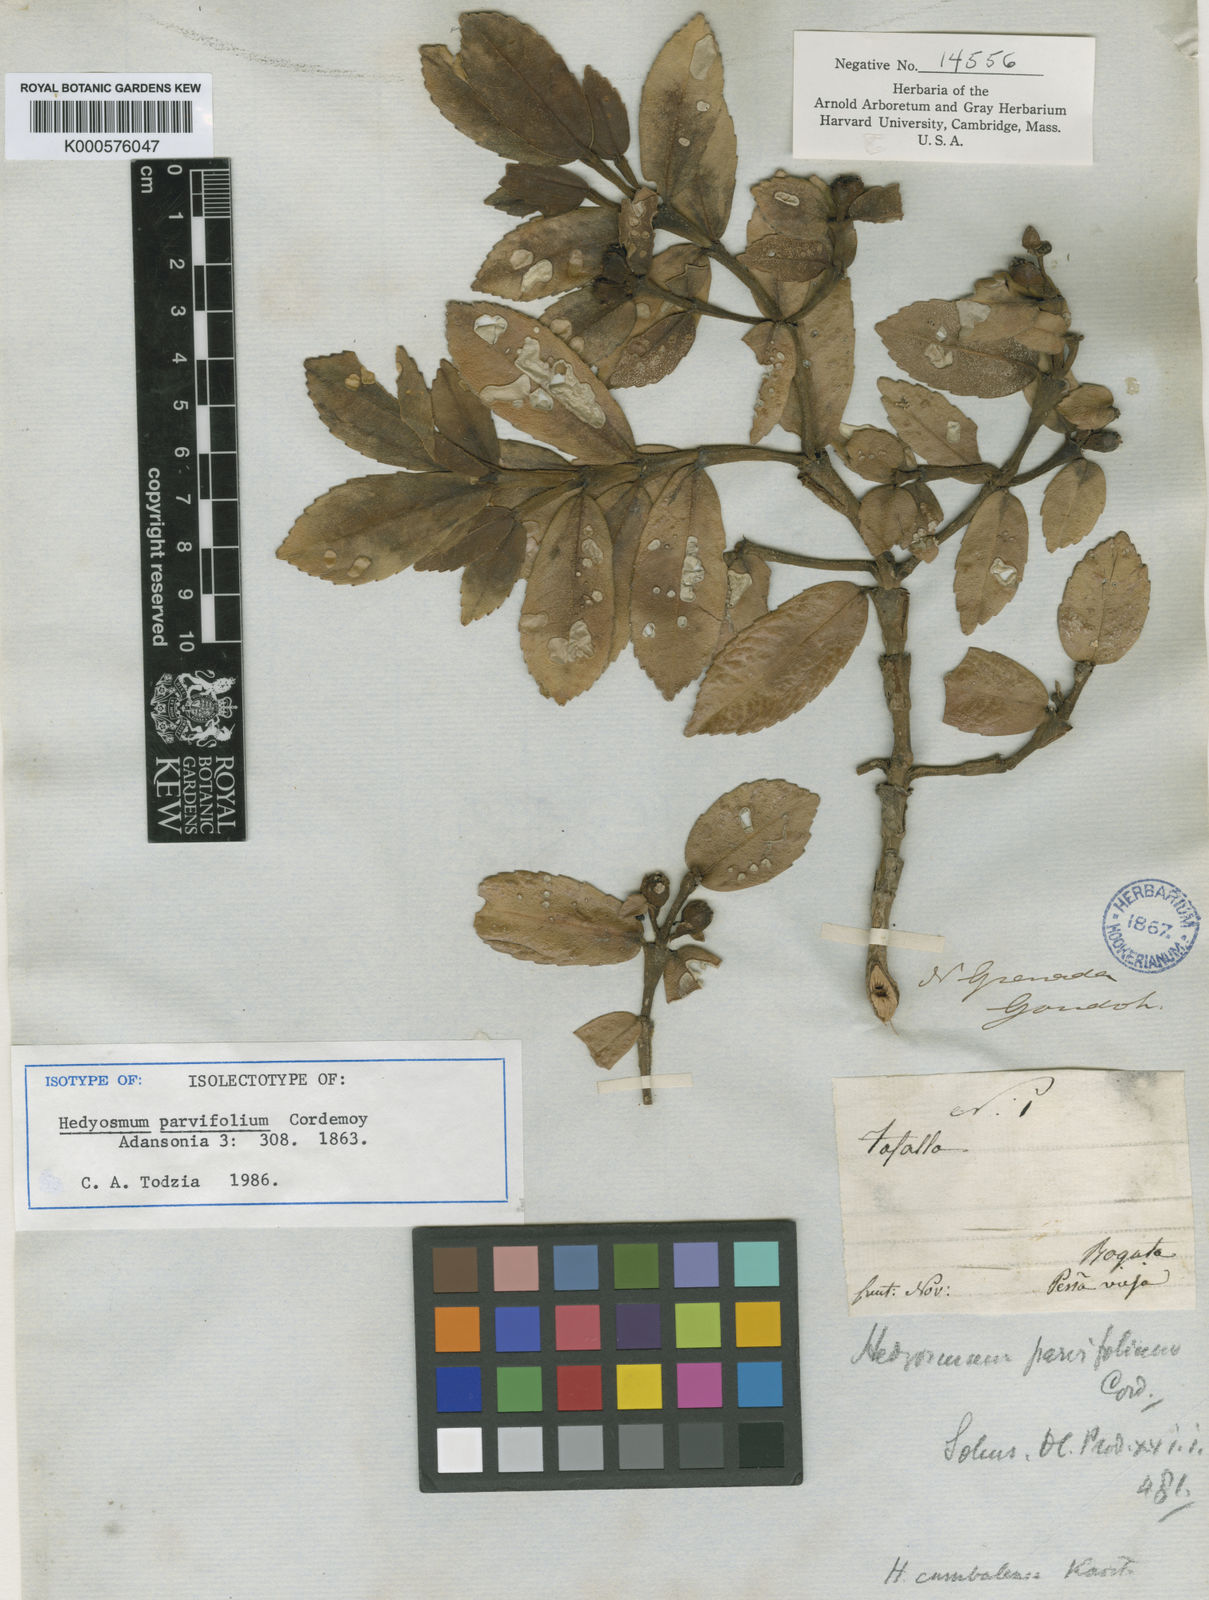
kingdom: Plantae
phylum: Tracheophyta
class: Magnoliopsida
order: Chloranthales
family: Chloranthaceae
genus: Hedyosmum
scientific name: Hedyosmum
